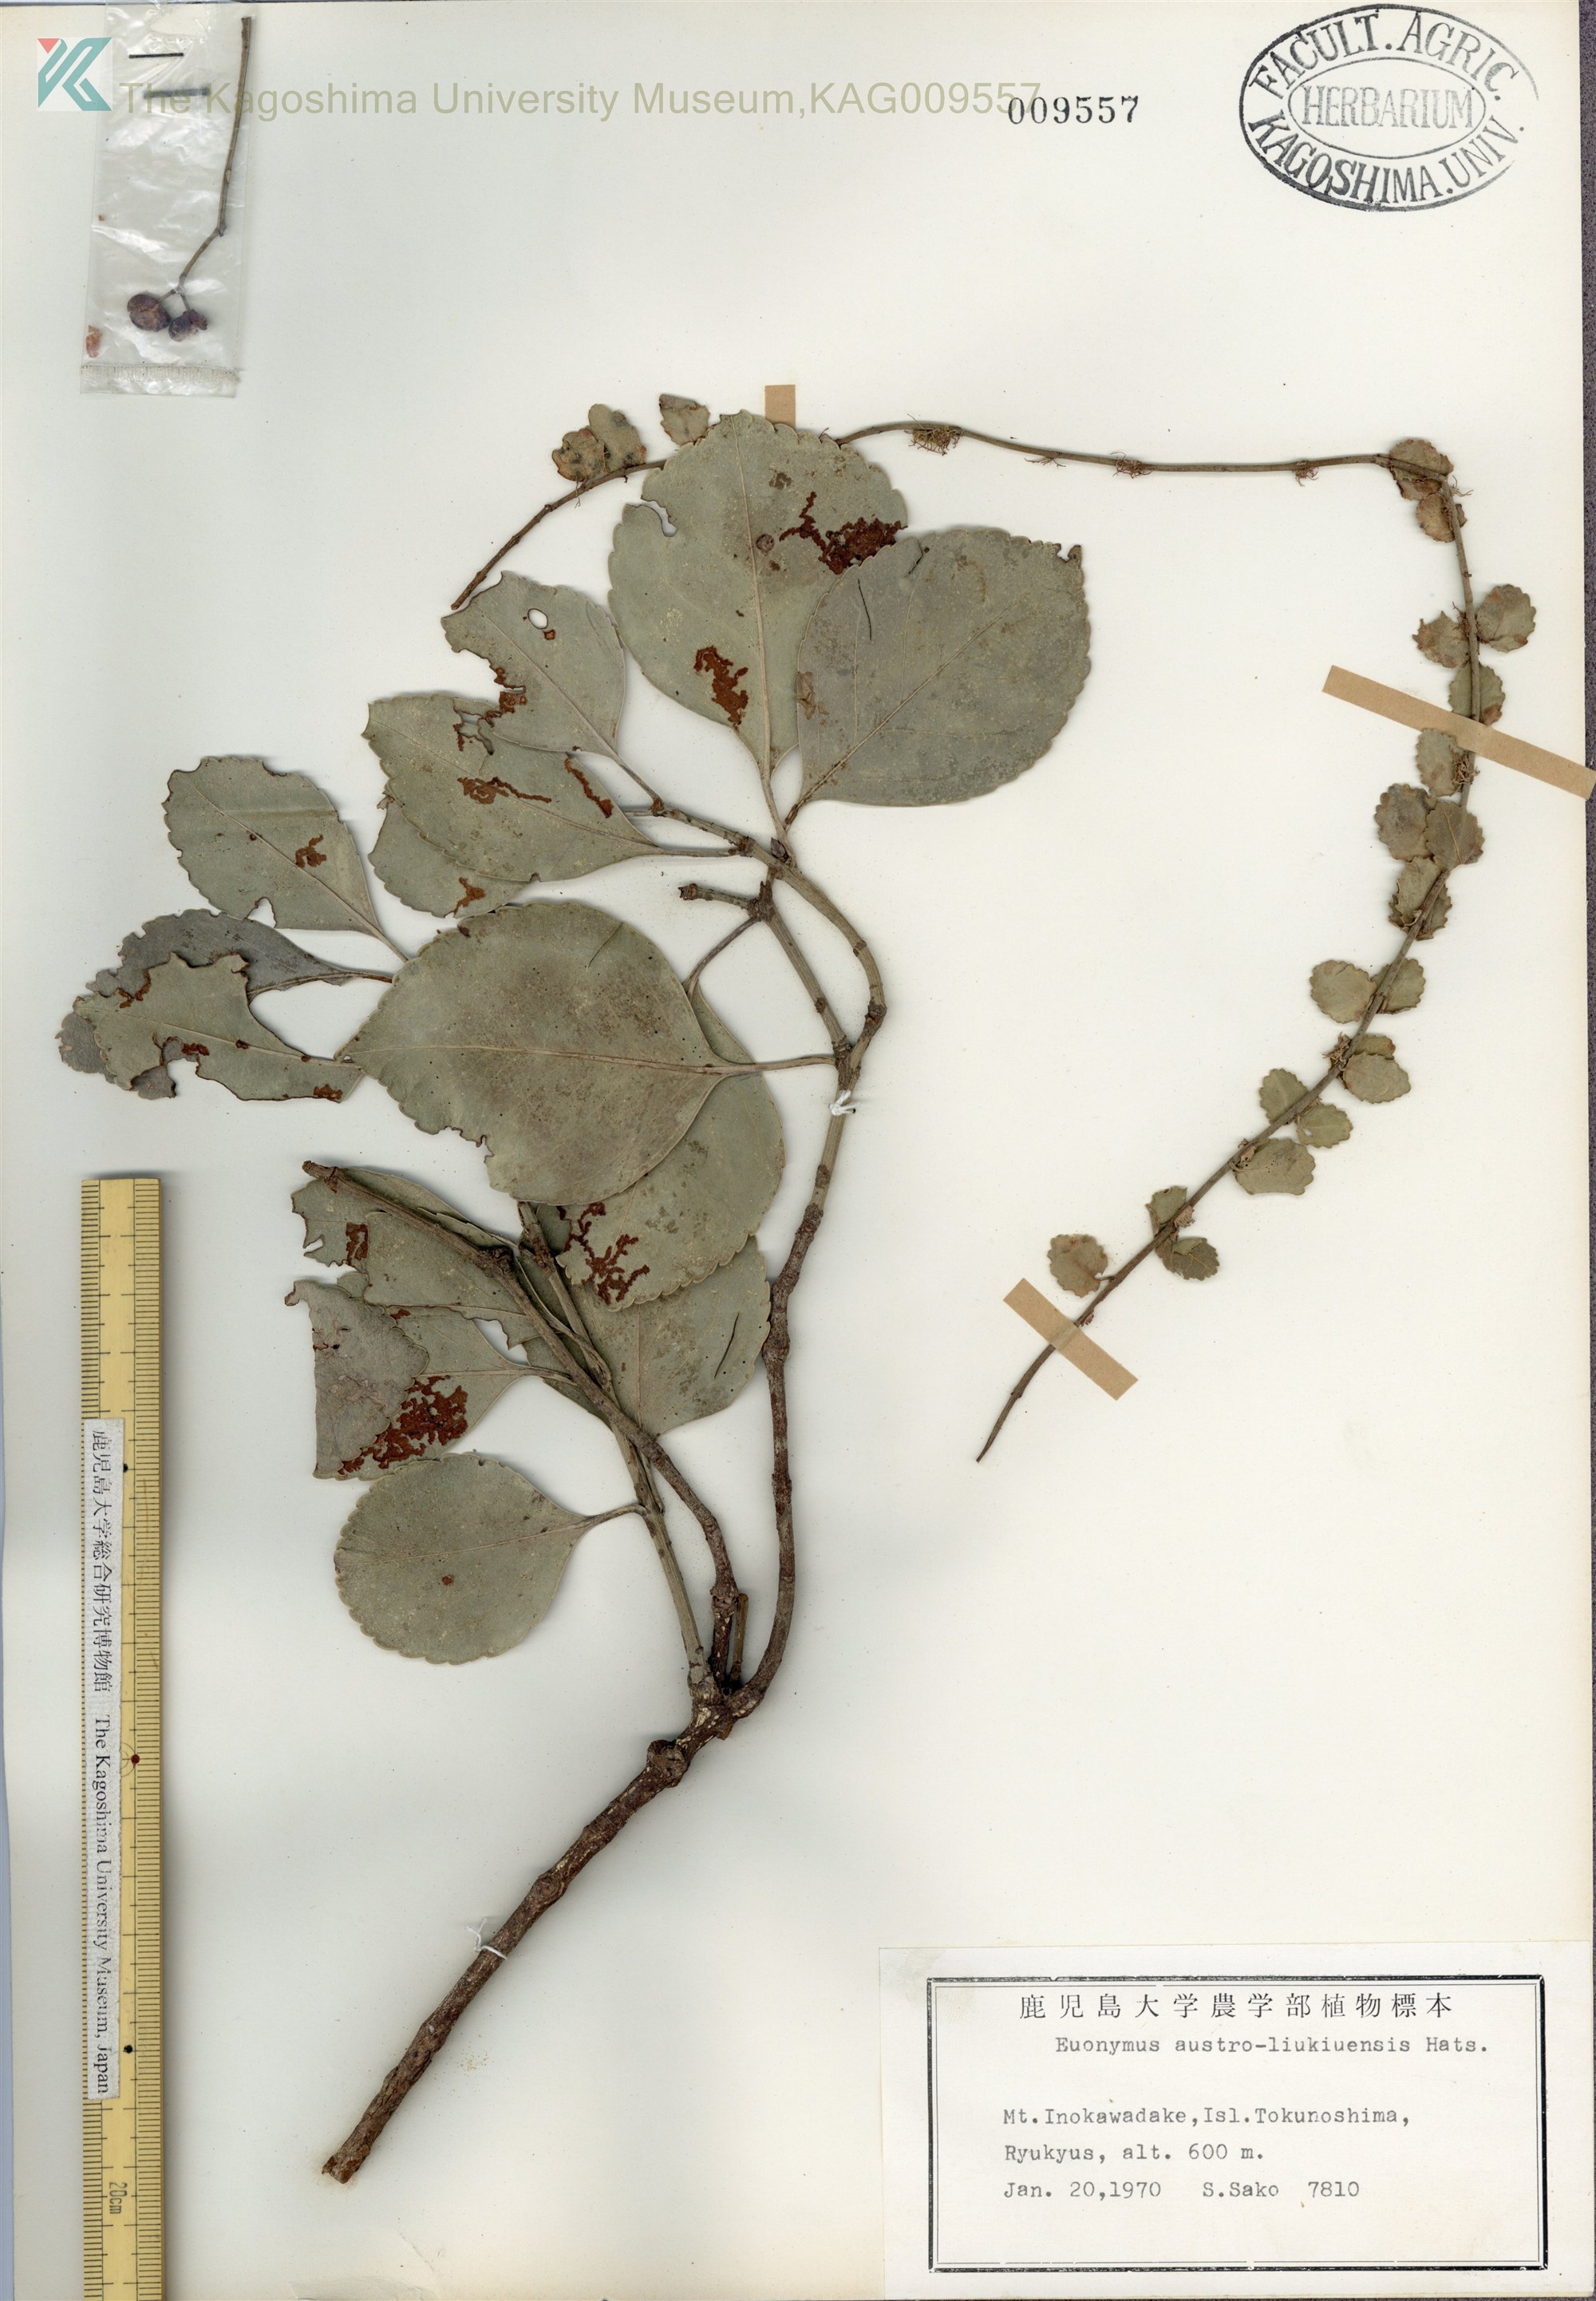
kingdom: Plantae
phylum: Tracheophyta
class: Magnoliopsida
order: Celastrales
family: Celastraceae
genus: Euonymus
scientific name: Euonymus fortunei
